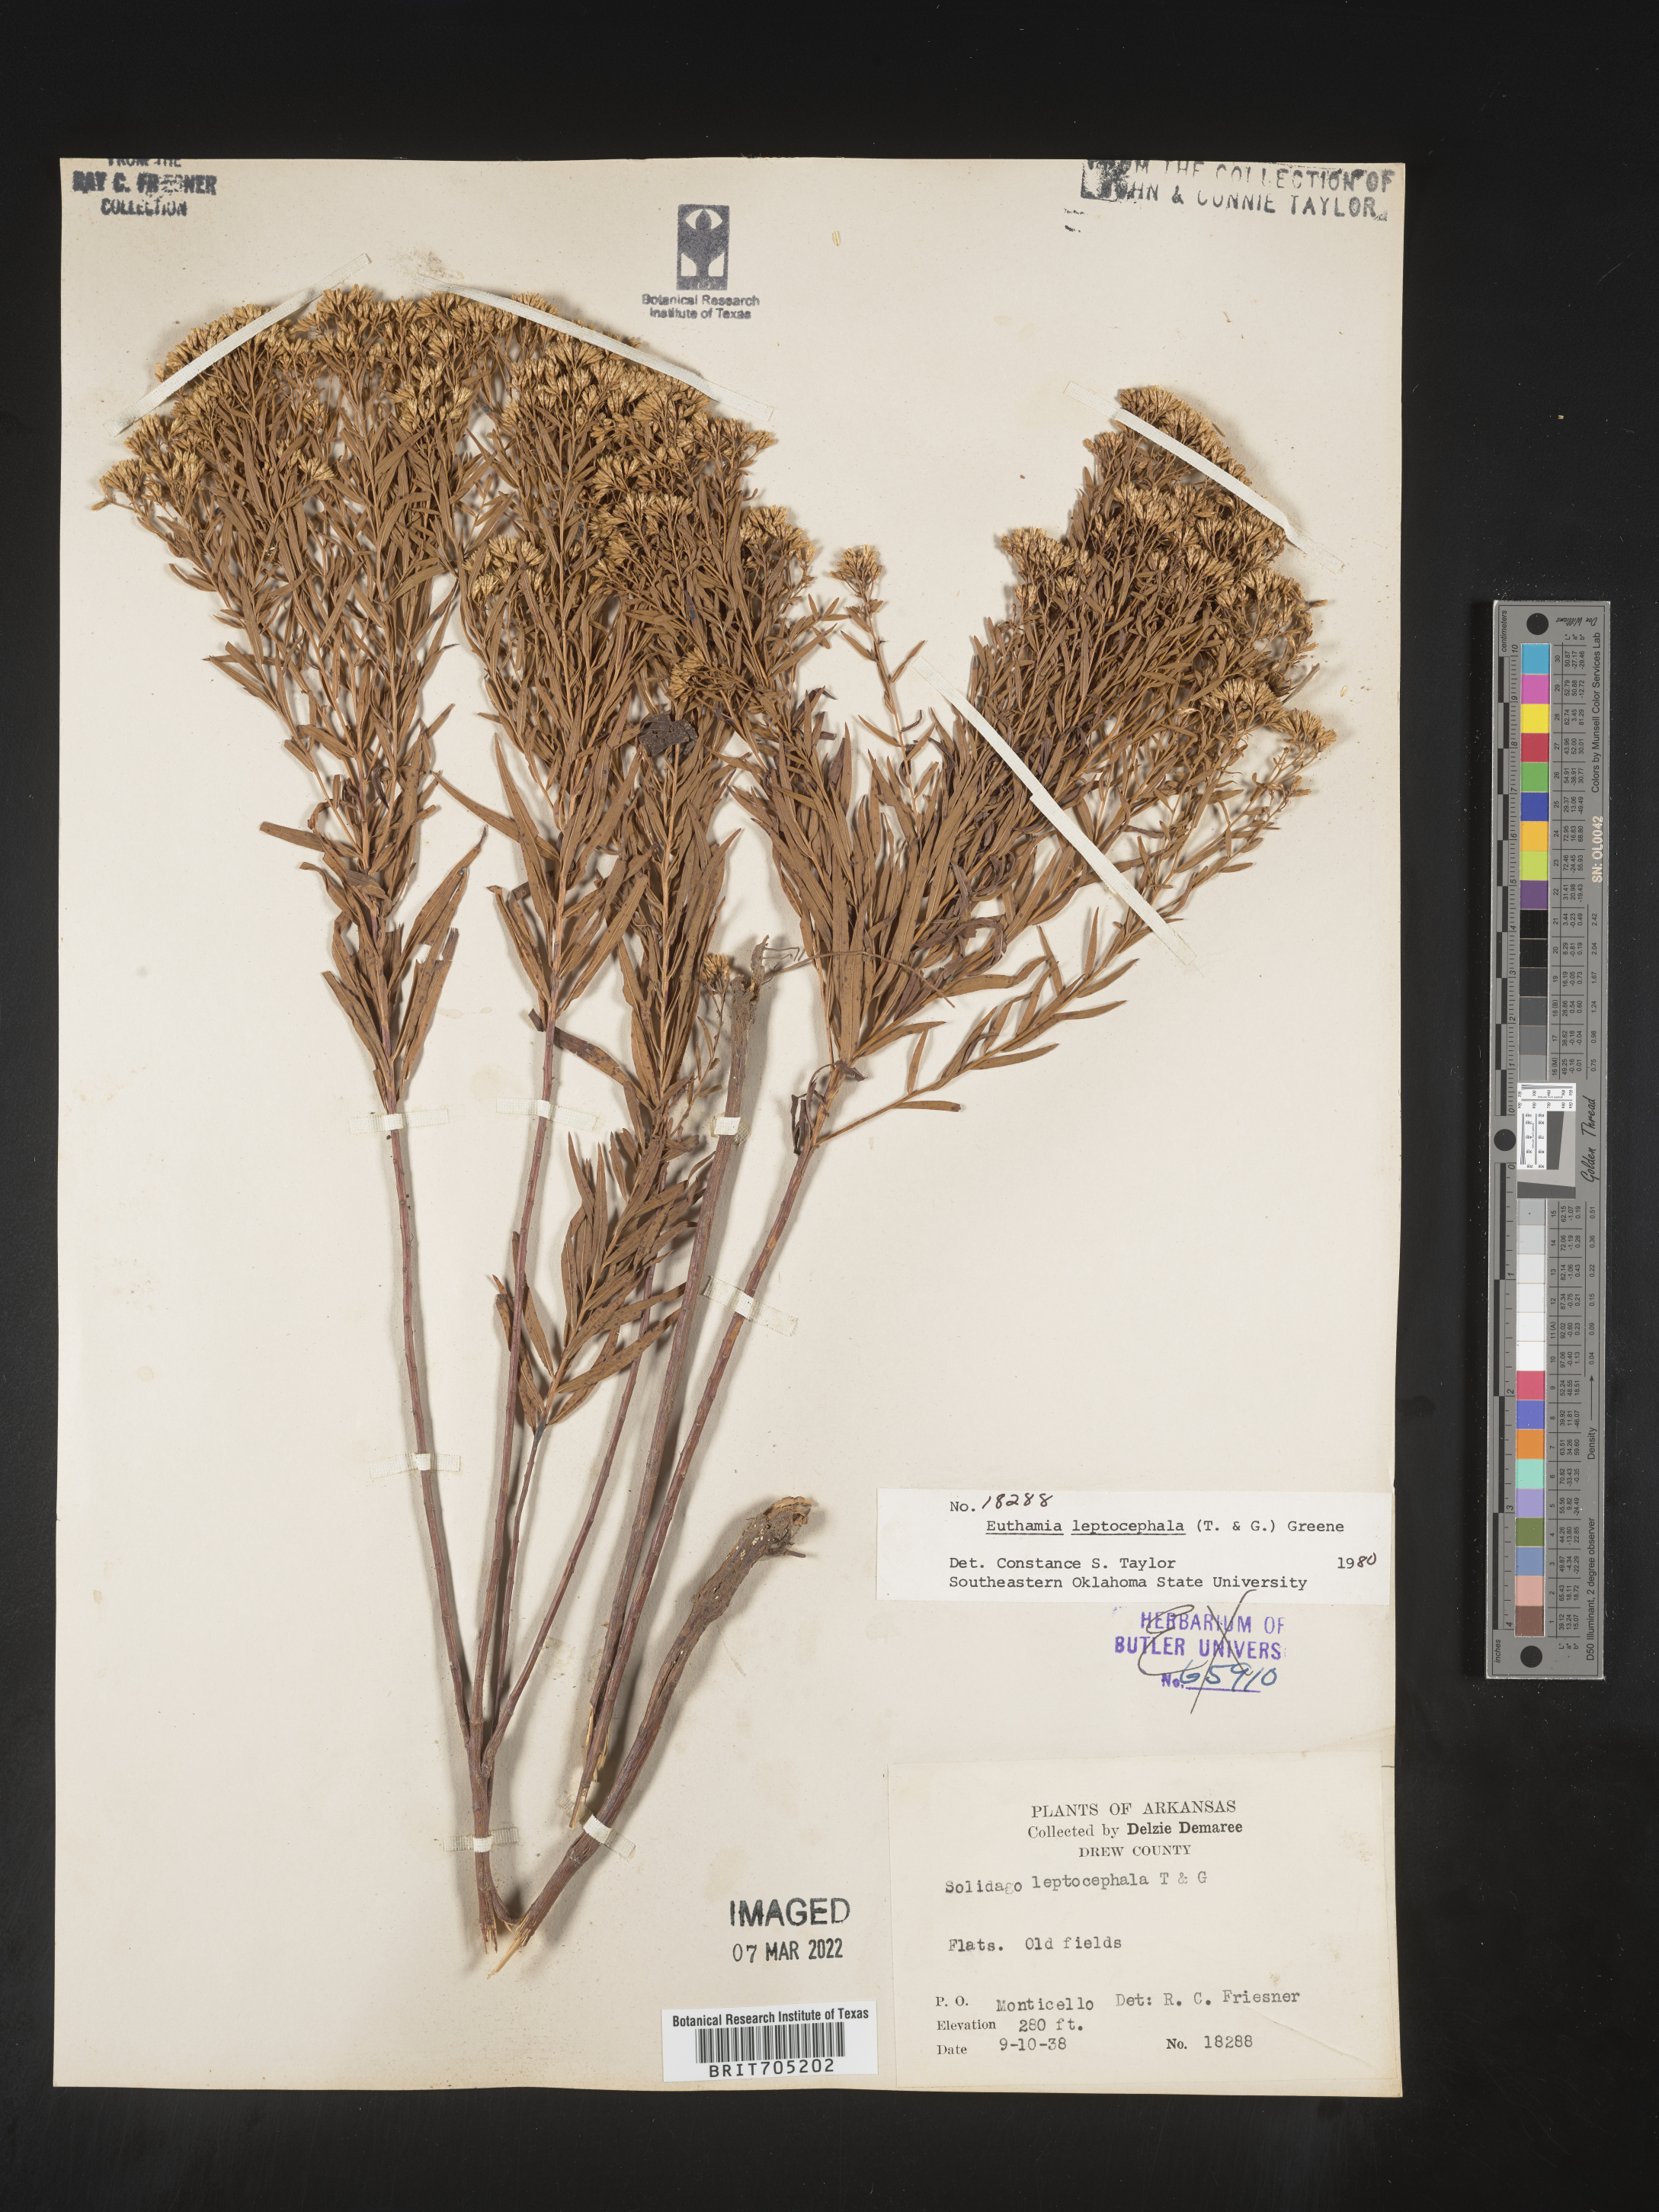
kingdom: Plantae
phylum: Tracheophyta
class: Magnoliopsida
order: Asterales
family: Asteraceae
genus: Euthamia
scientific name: Euthamia leptocephala
